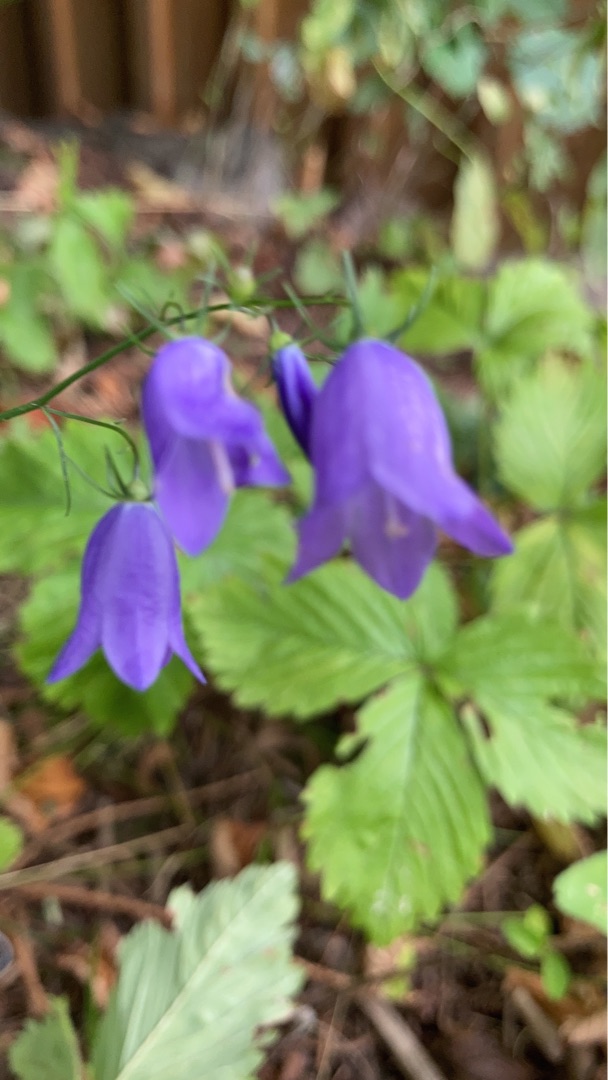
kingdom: Plantae
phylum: Tracheophyta
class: Magnoliopsida
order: Asterales
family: Campanulaceae
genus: Campanula
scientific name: Campanula rotundifolia
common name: Liden klokke
